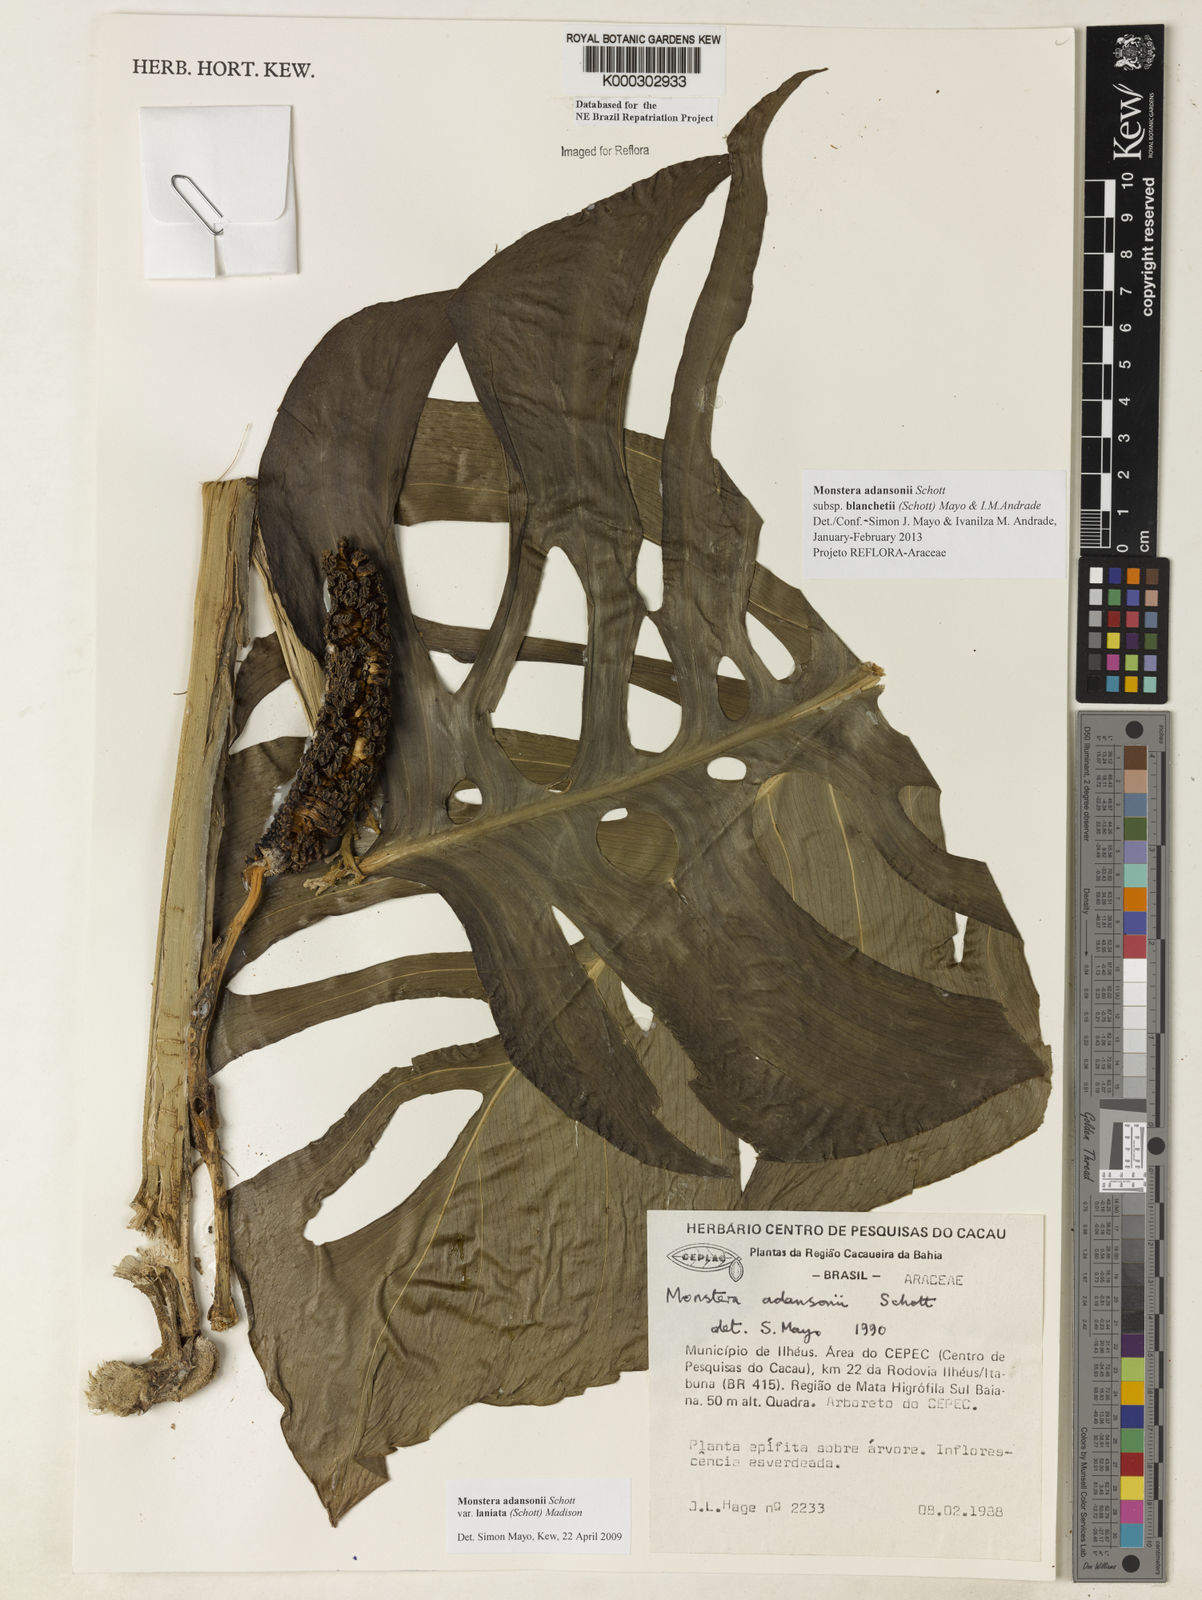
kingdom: Plantae
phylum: Tracheophyta
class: Liliopsida
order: Alismatales
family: Araceae
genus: Monstera
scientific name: Monstera adansonii
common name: Tarovine
